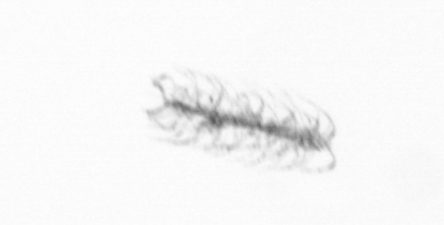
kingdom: Chromista
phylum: Ochrophyta
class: Bacillariophyceae
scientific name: Bacillariophyceae
